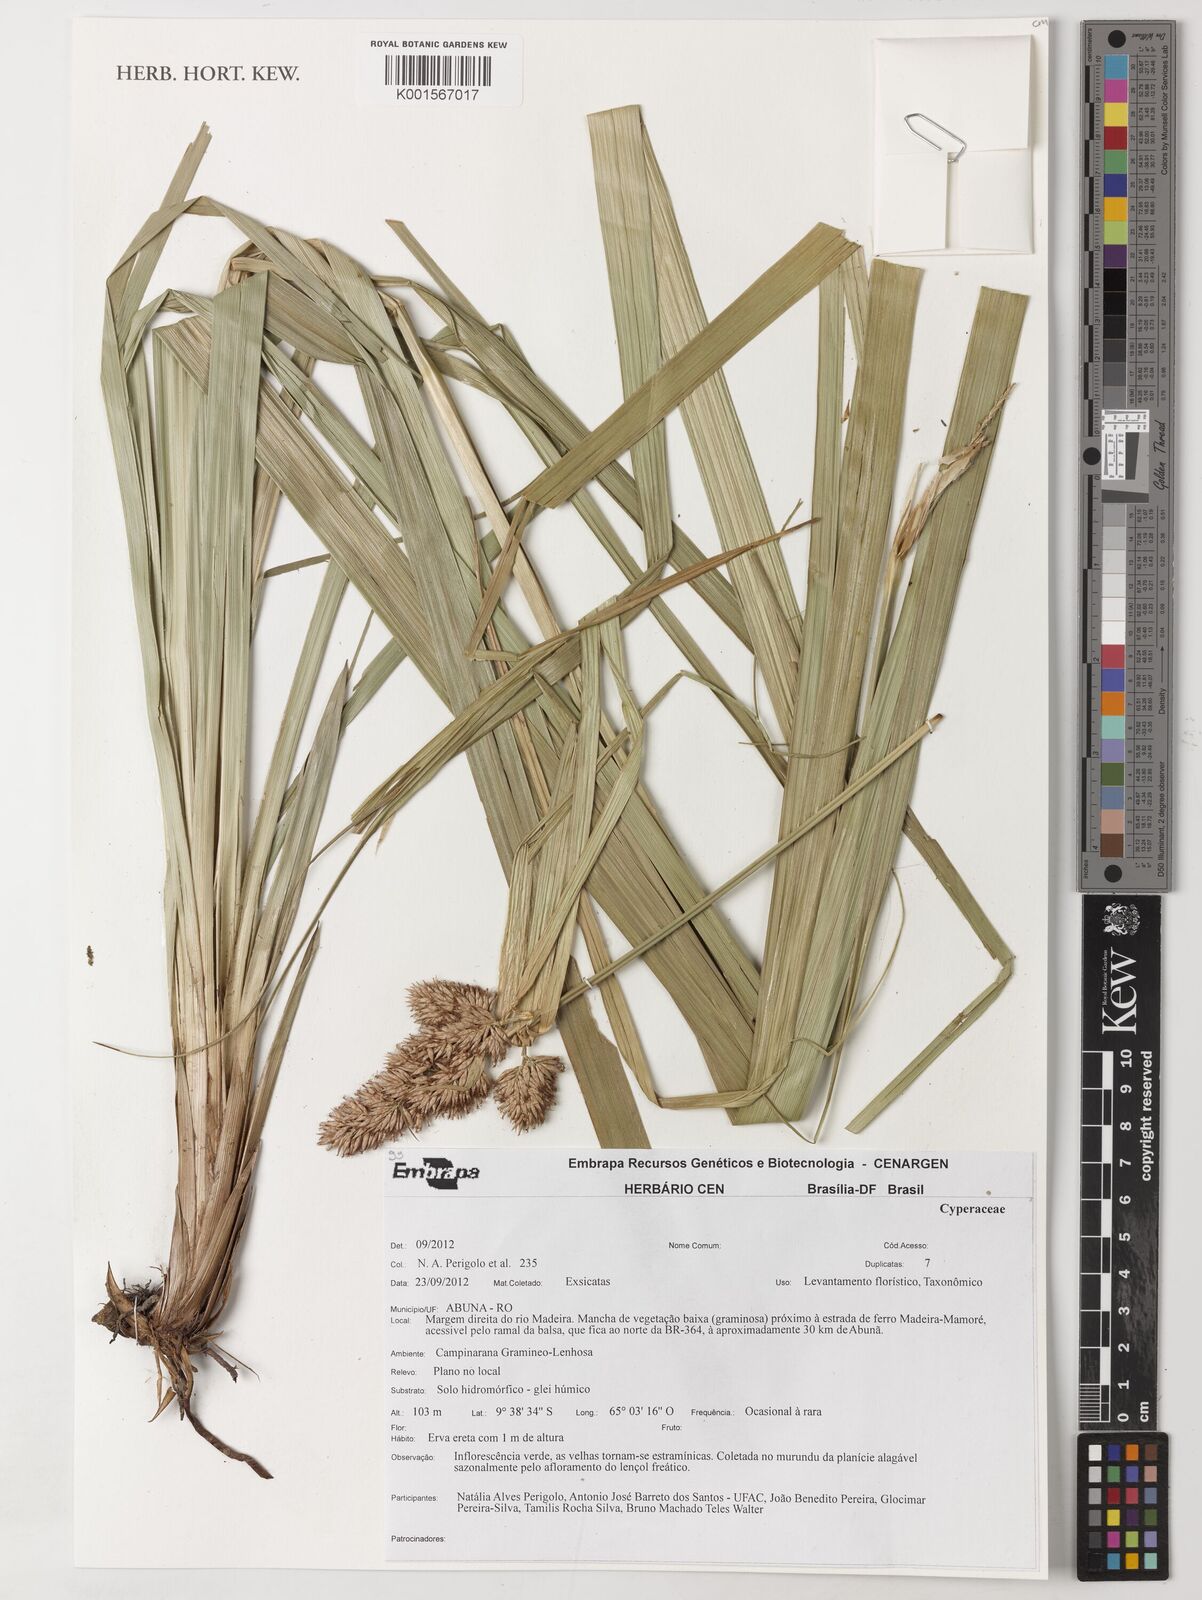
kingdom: Plantae
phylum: Tracheophyta
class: Liliopsida
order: Poales
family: Cyperaceae
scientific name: Cyperaceae
